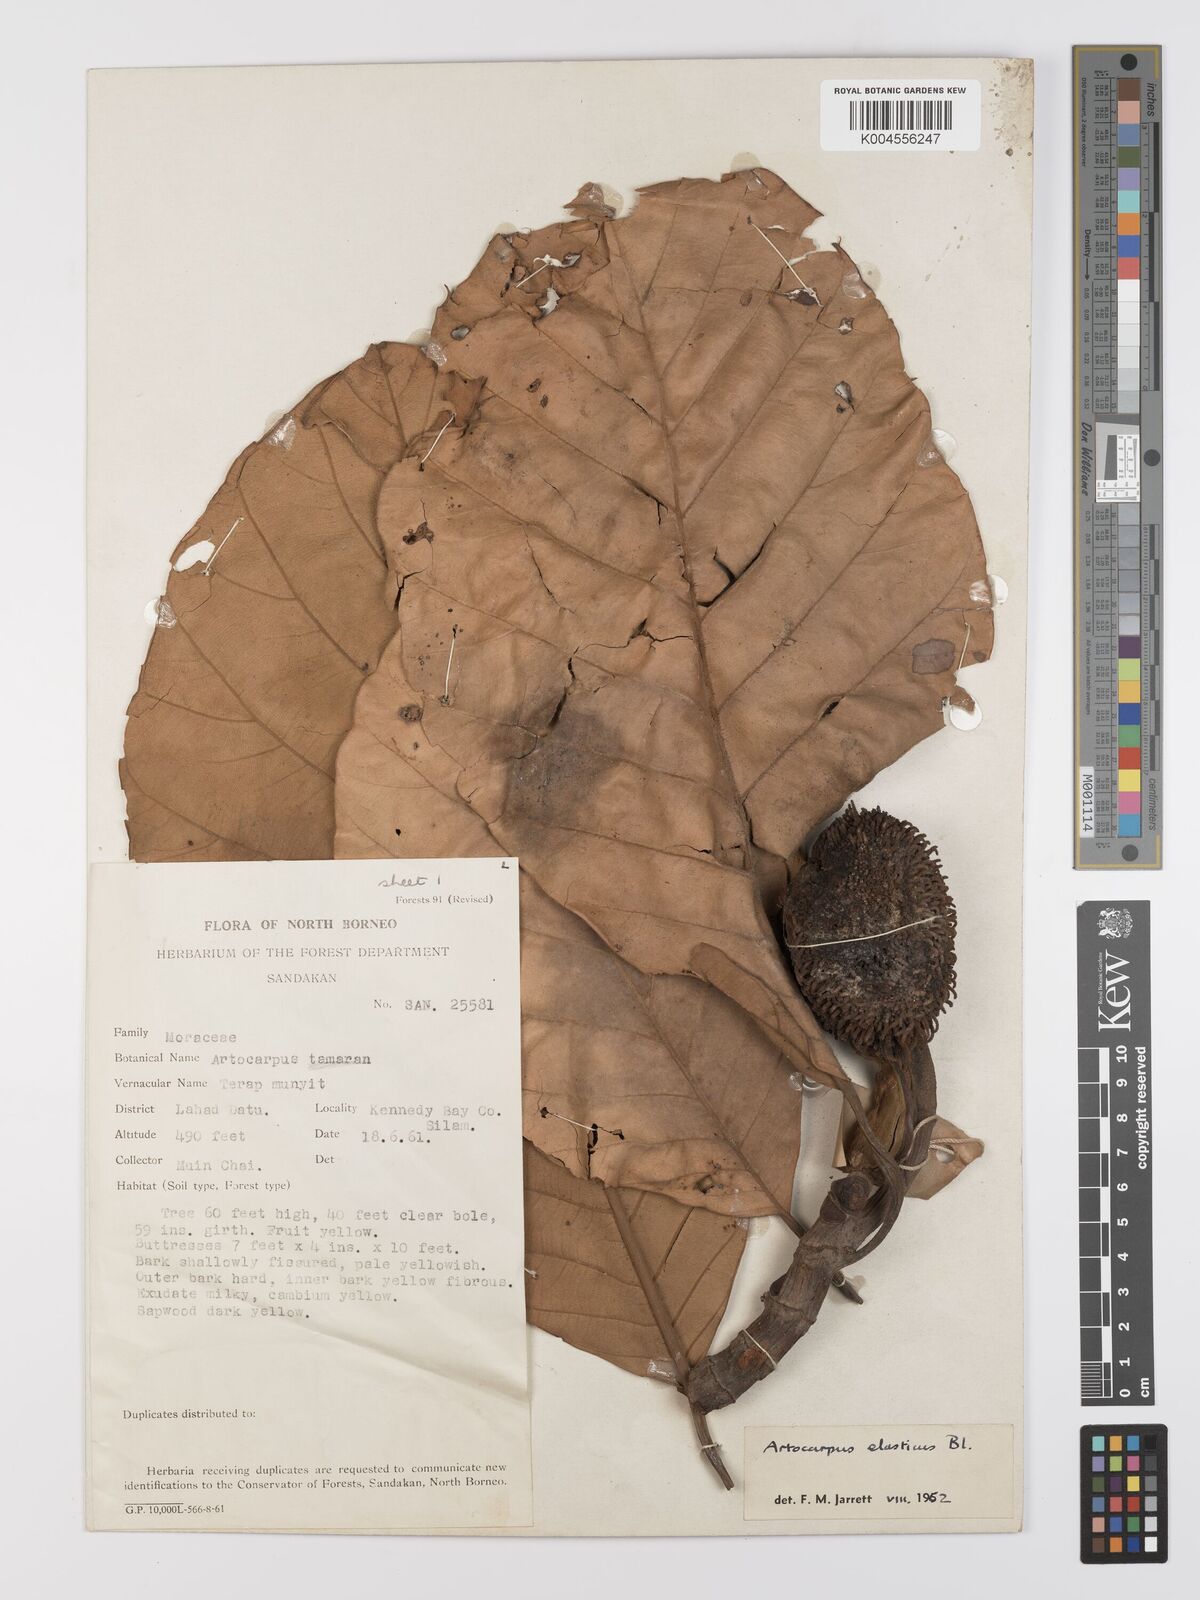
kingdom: Plantae
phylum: Tracheophyta
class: Magnoliopsida
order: Rosales
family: Moraceae
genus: Artocarpus
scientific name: Artocarpus elasticus
